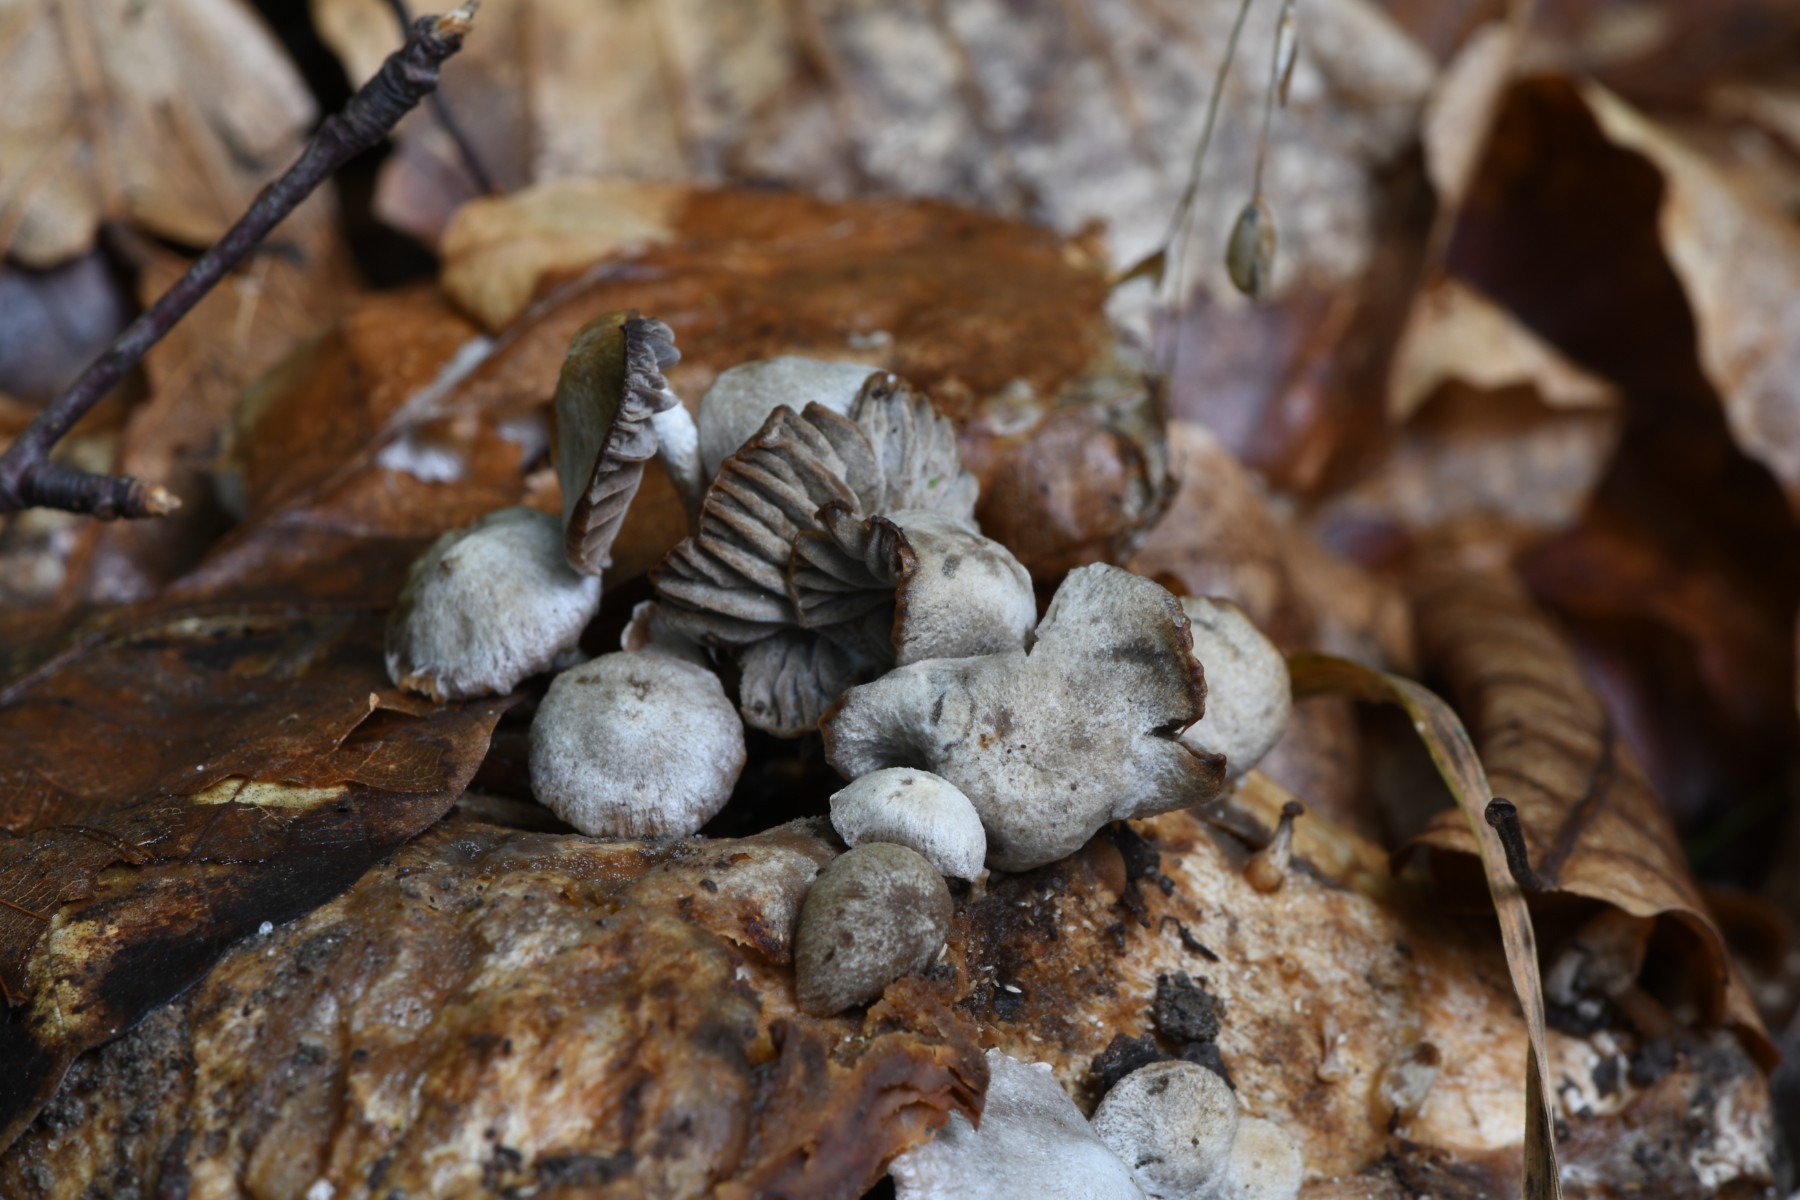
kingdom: Fungi
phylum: Basidiomycota
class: Agaricomycetes
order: Agaricales
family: Lyophyllaceae
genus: Asterophora
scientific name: Asterophora parasitica
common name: grå snyltehat
